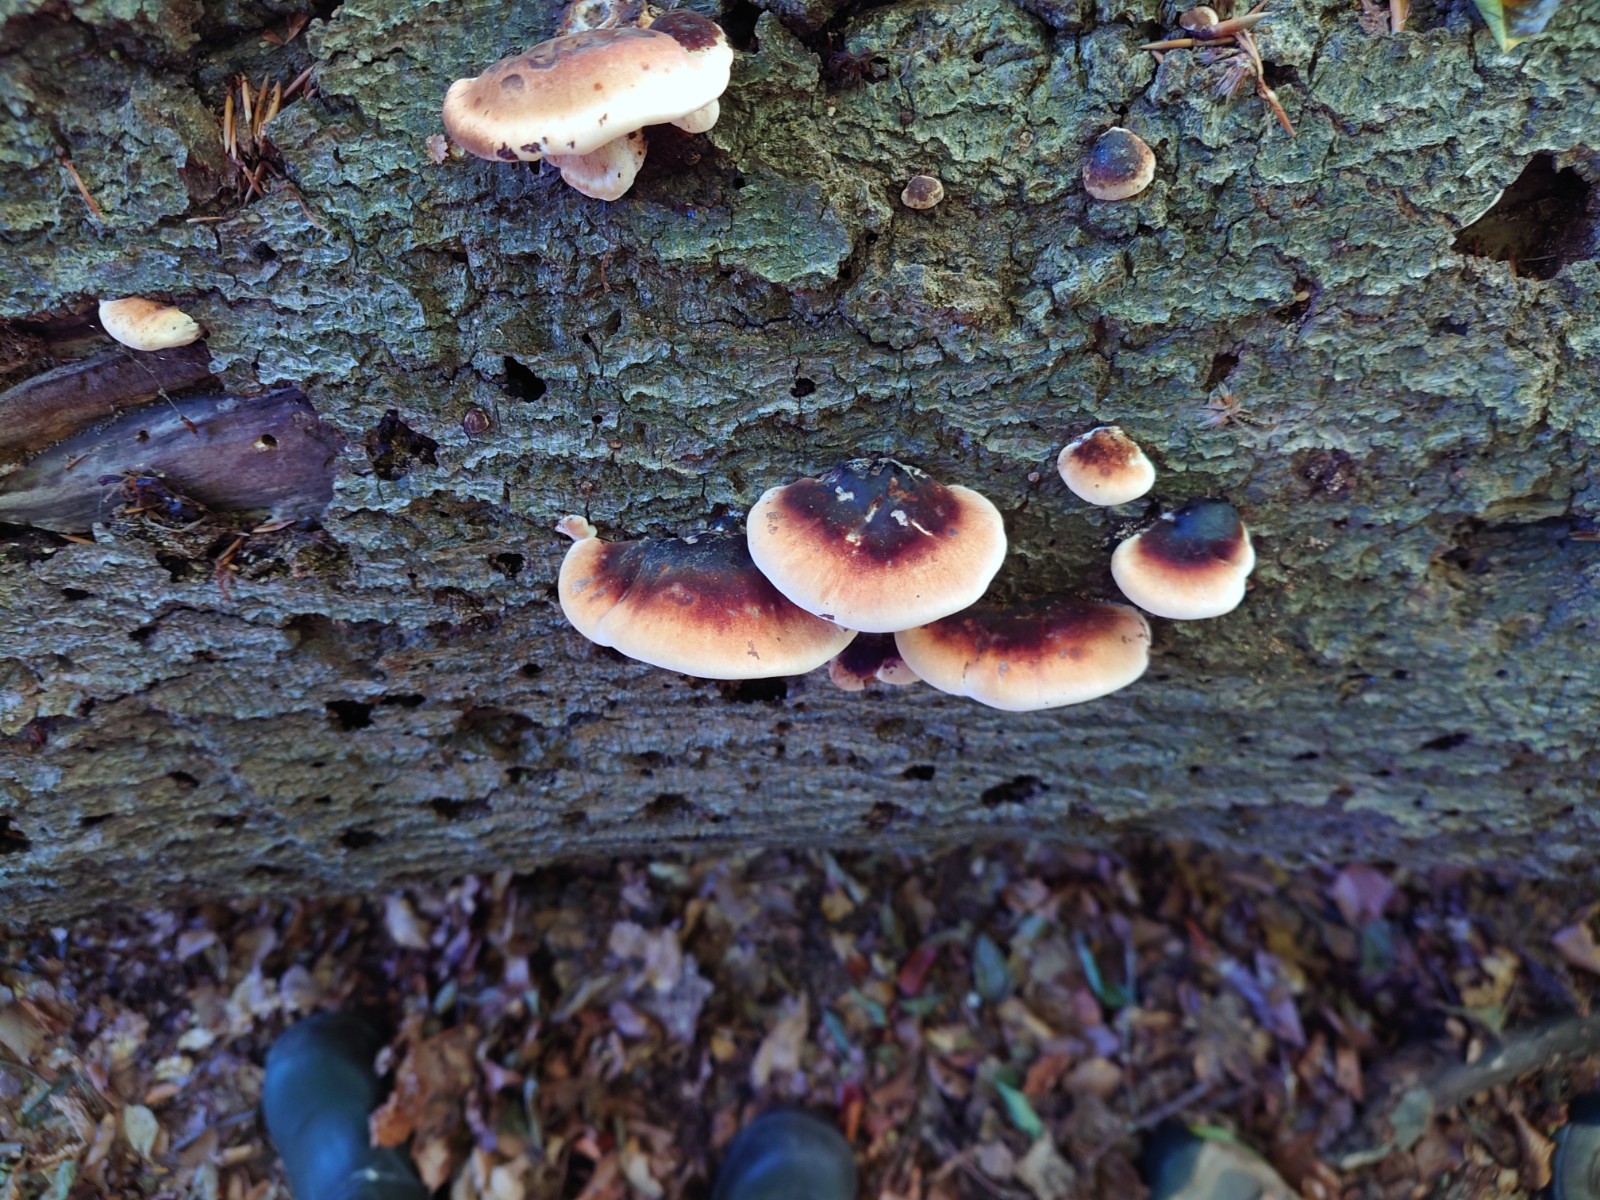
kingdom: Fungi
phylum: Basidiomycota
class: Agaricomycetes
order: Polyporales
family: Ischnodermataceae
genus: Ischnoderma
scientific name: Ischnoderma resinosum
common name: løv-tjæreporesvamp
